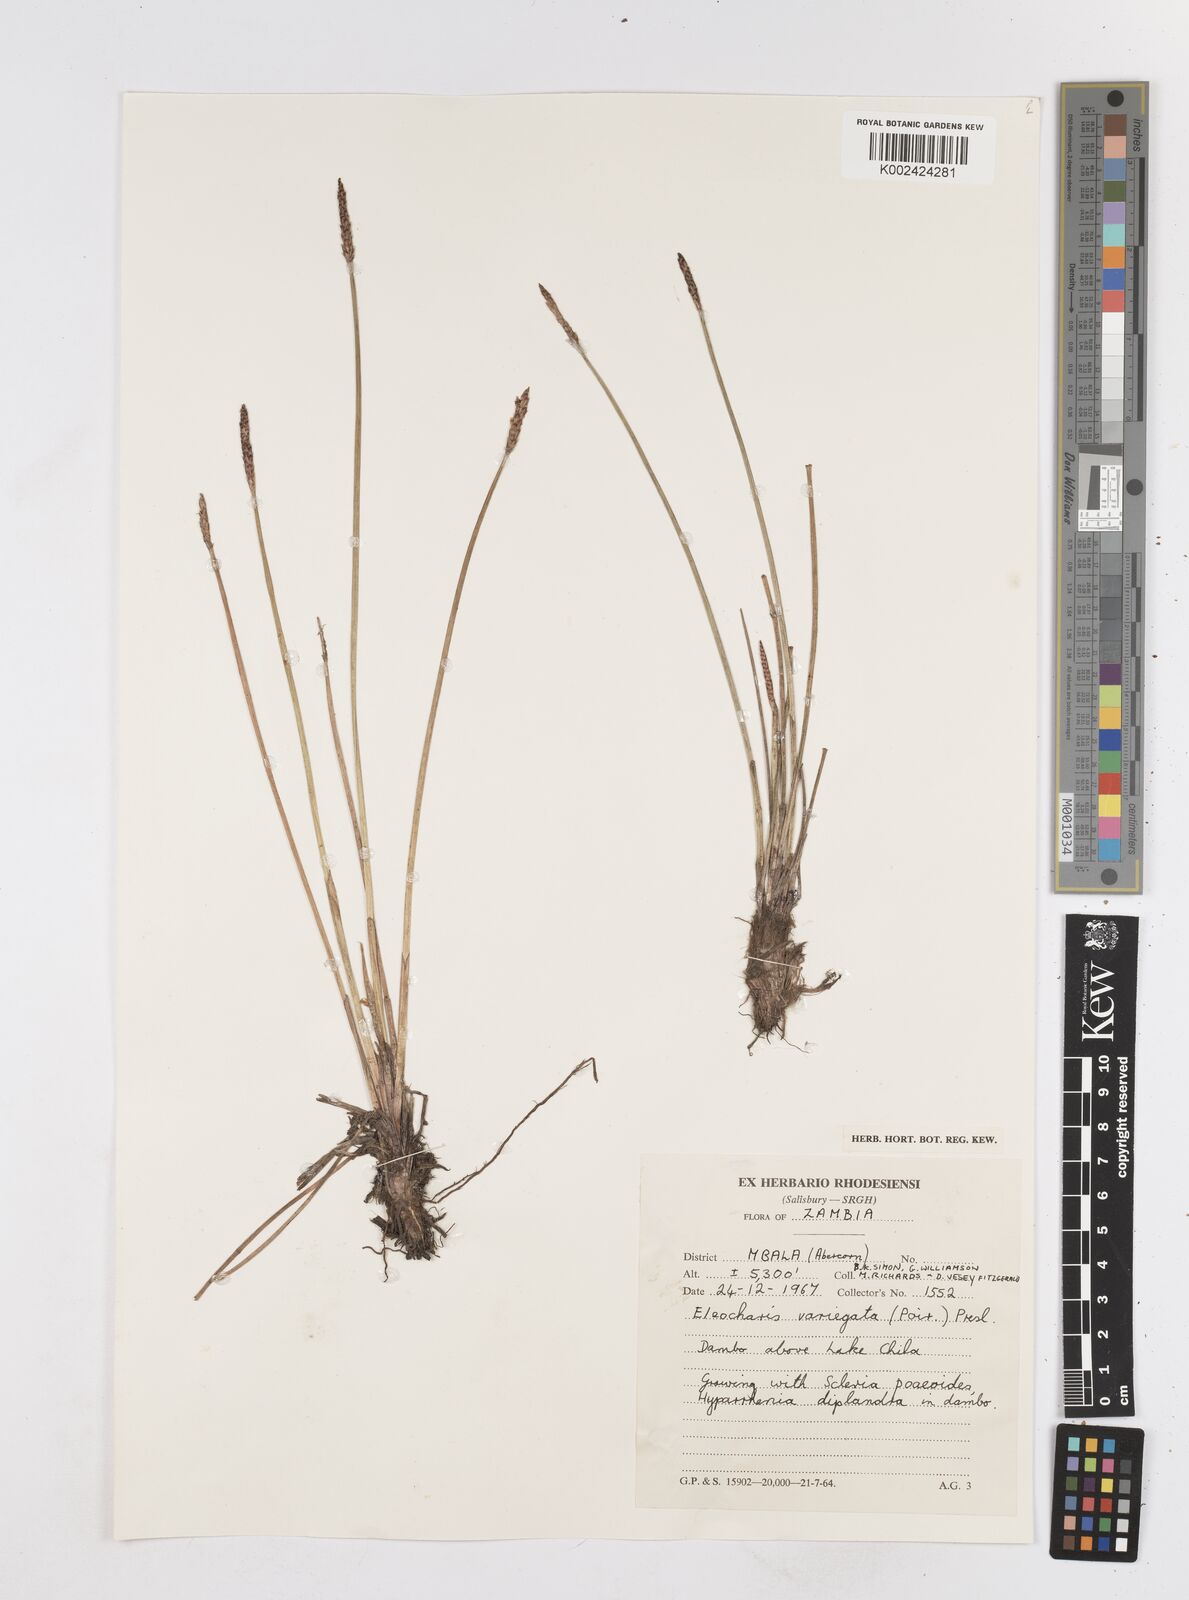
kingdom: Plantae
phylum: Tracheophyta
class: Liliopsida
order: Poales
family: Cyperaceae
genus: Eleocharis
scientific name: Eleocharis variegata
